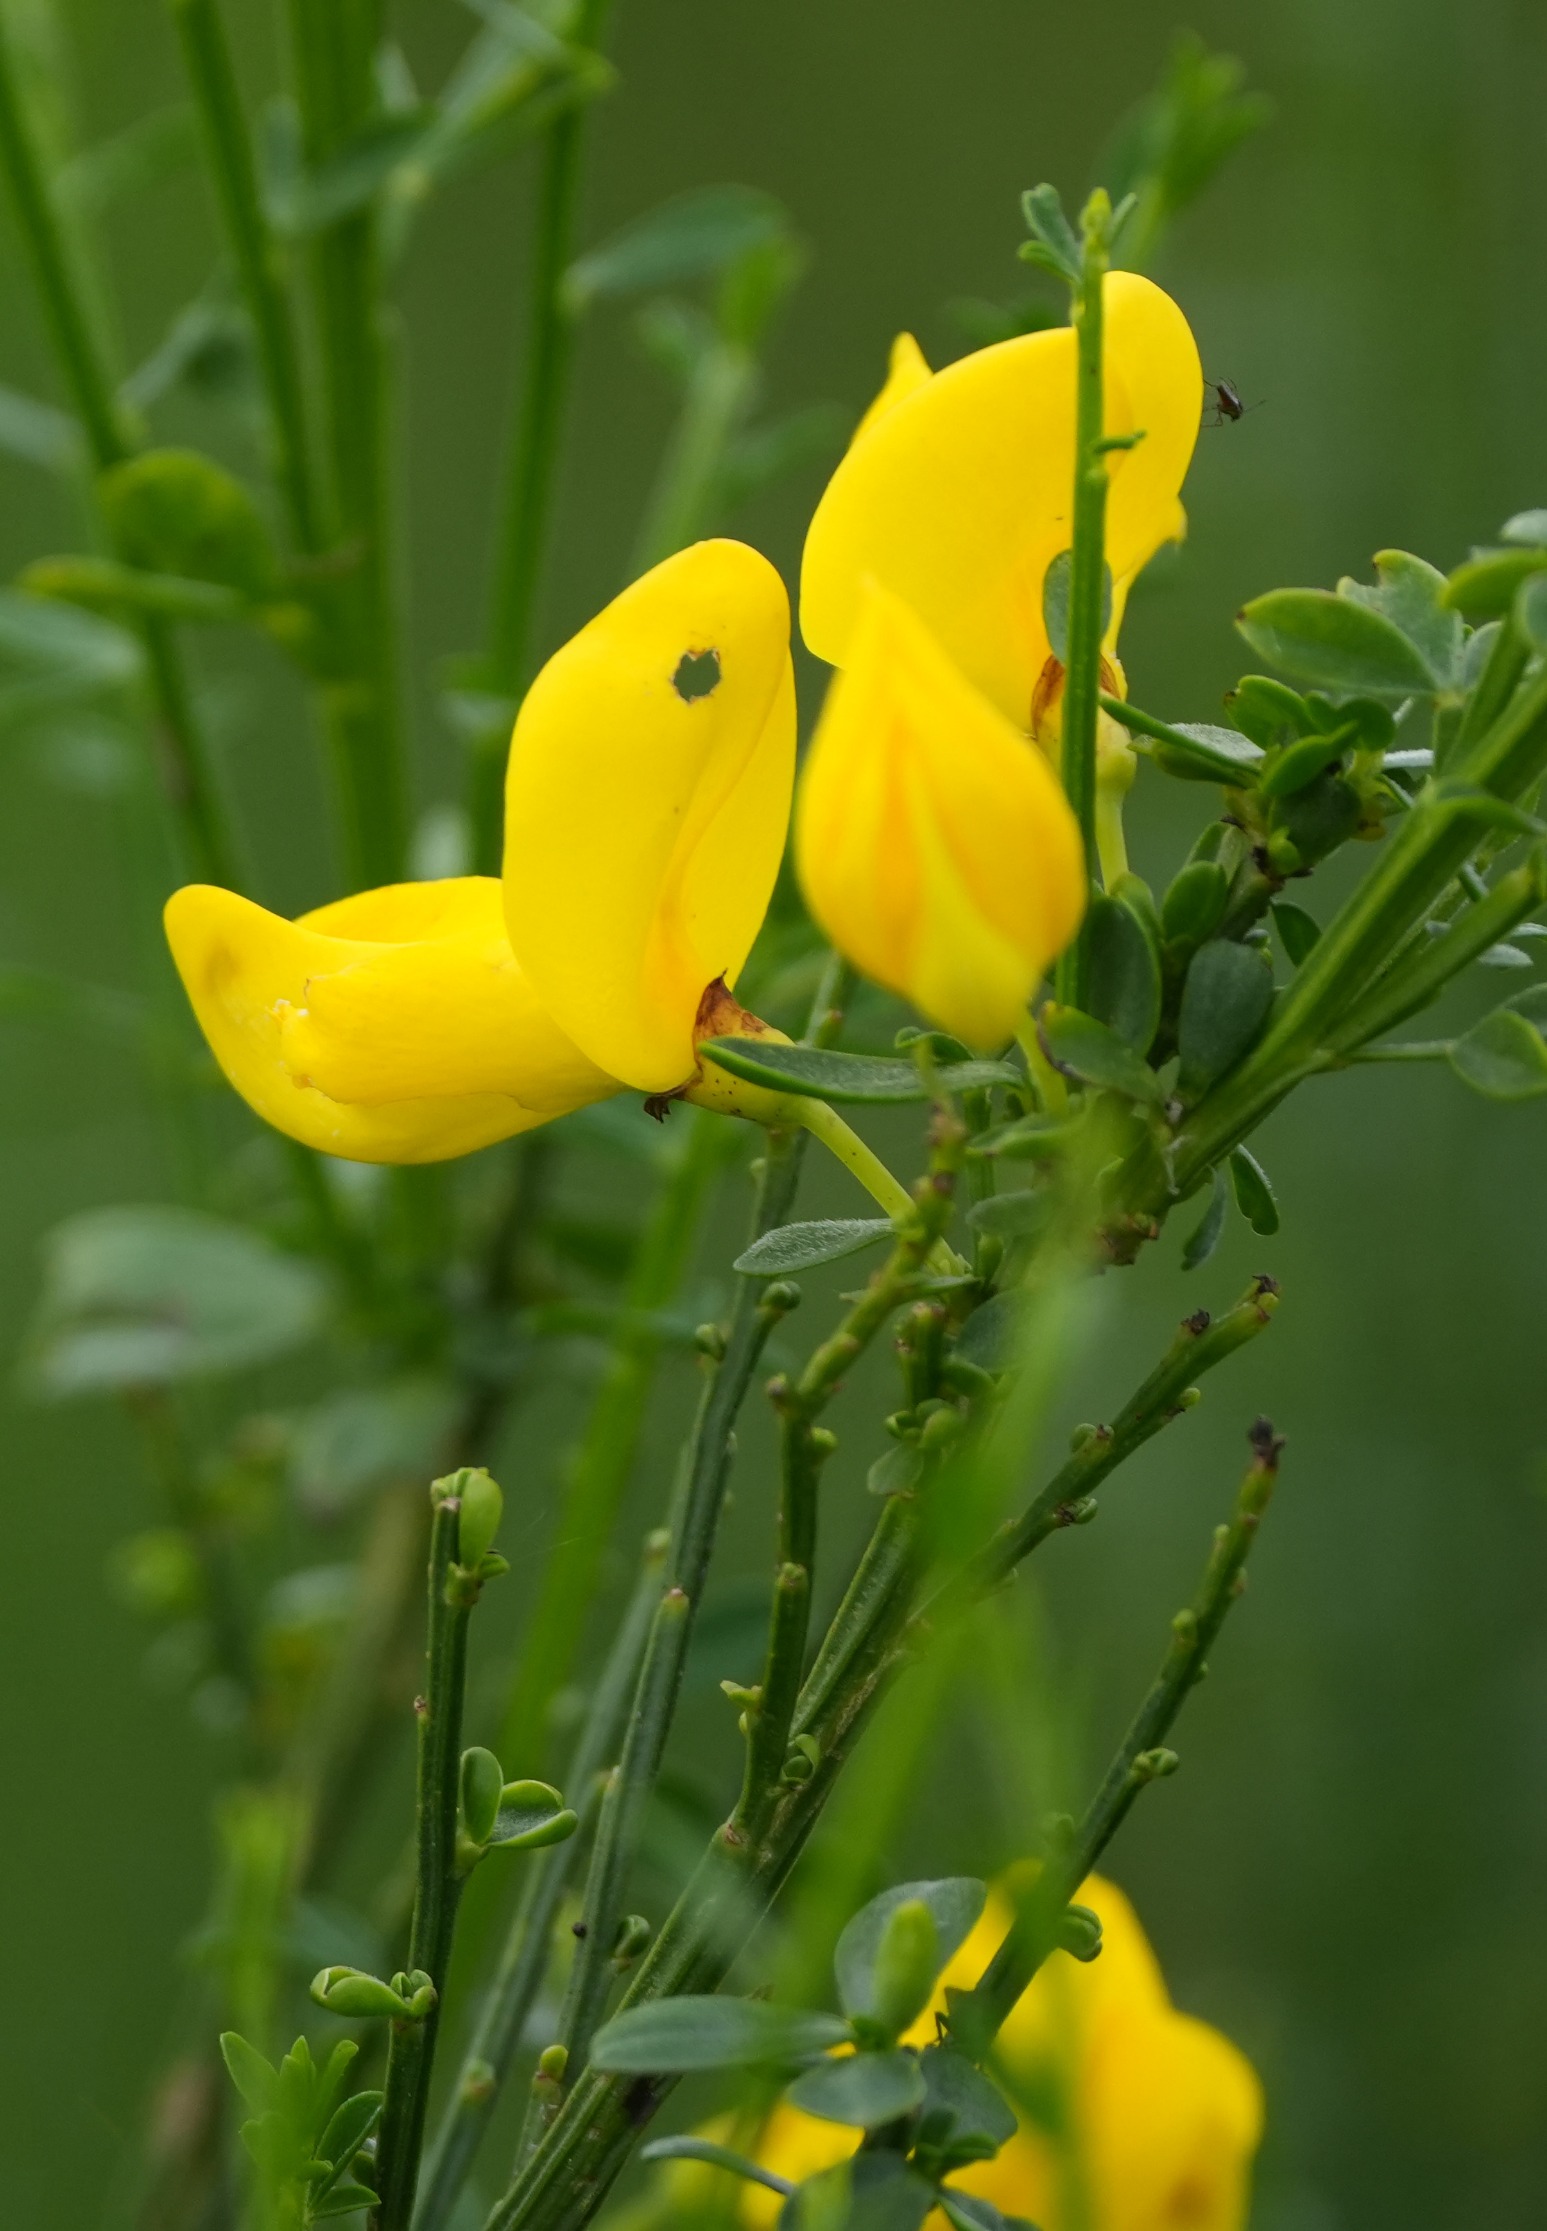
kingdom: Plantae
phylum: Tracheophyta
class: Magnoliopsida
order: Fabales
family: Fabaceae
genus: Cytisus
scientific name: Cytisus scoparius
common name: Almindelig gyvel
